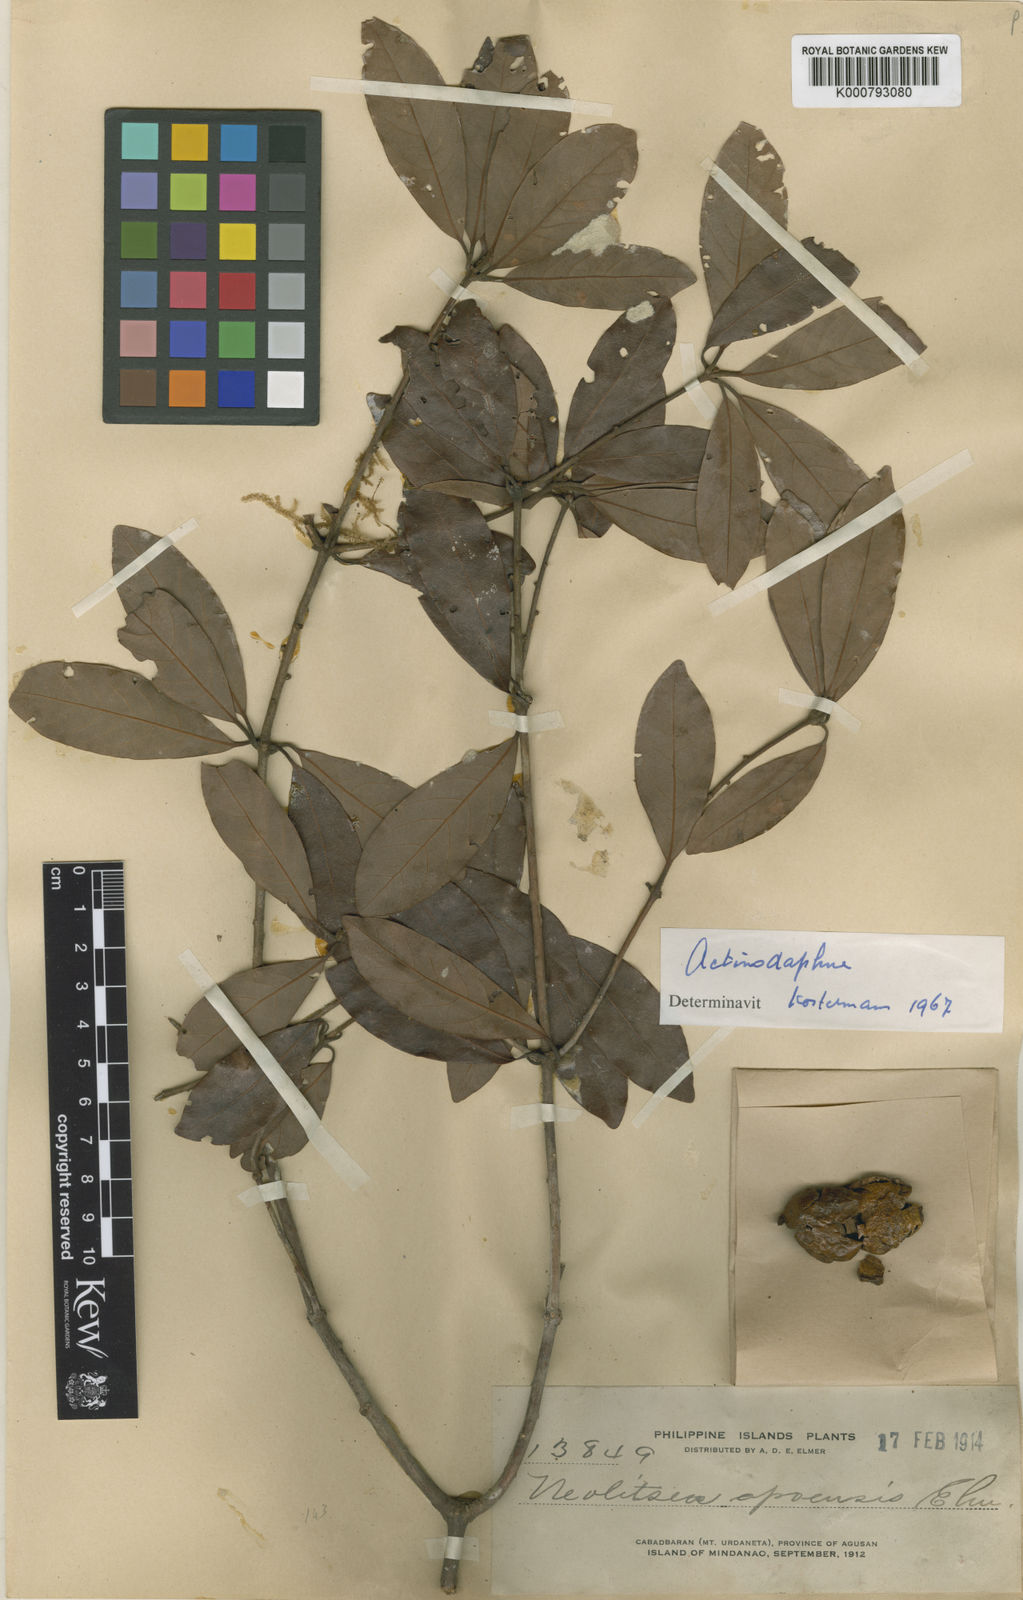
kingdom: Plantae
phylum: Tracheophyta
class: Magnoliopsida
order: Laurales
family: Lauraceae
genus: Actinodaphne
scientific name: Actinodaphne
